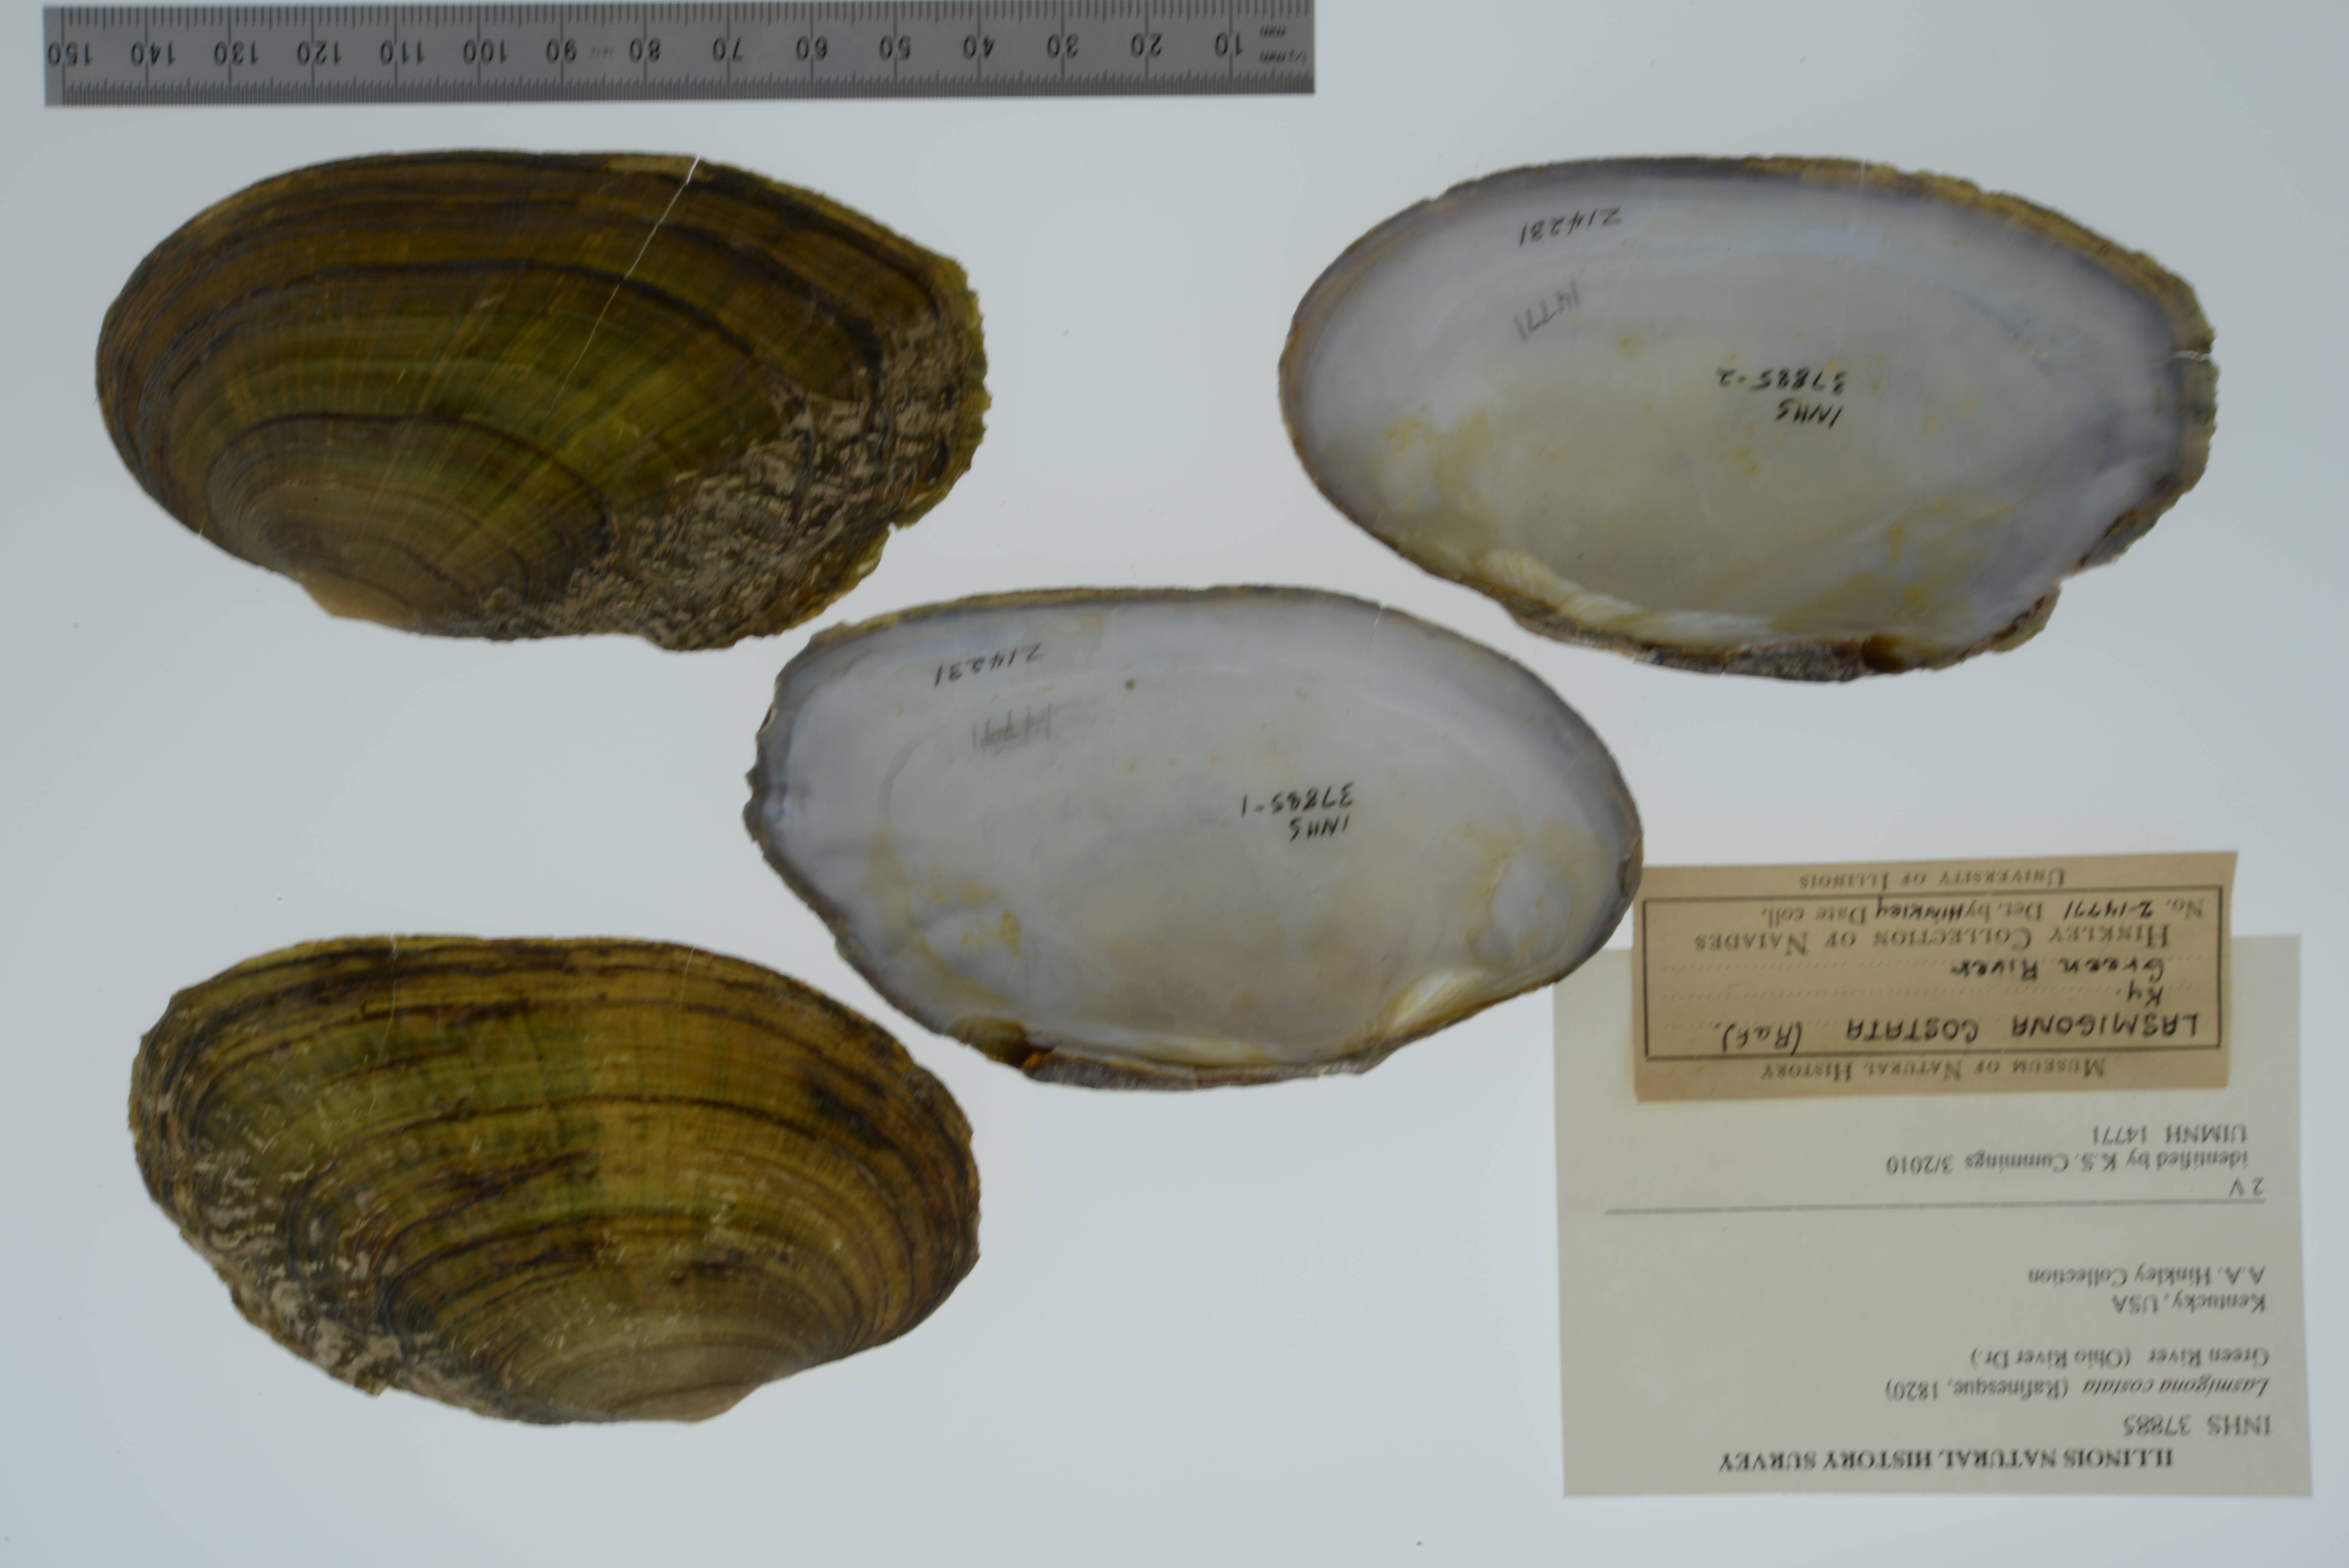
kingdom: Animalia
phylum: Mollusca
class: Bivalvia
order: Unionida
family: Unionidae
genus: Lasmigona
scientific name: Lasmigona costata
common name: Flutedshell
